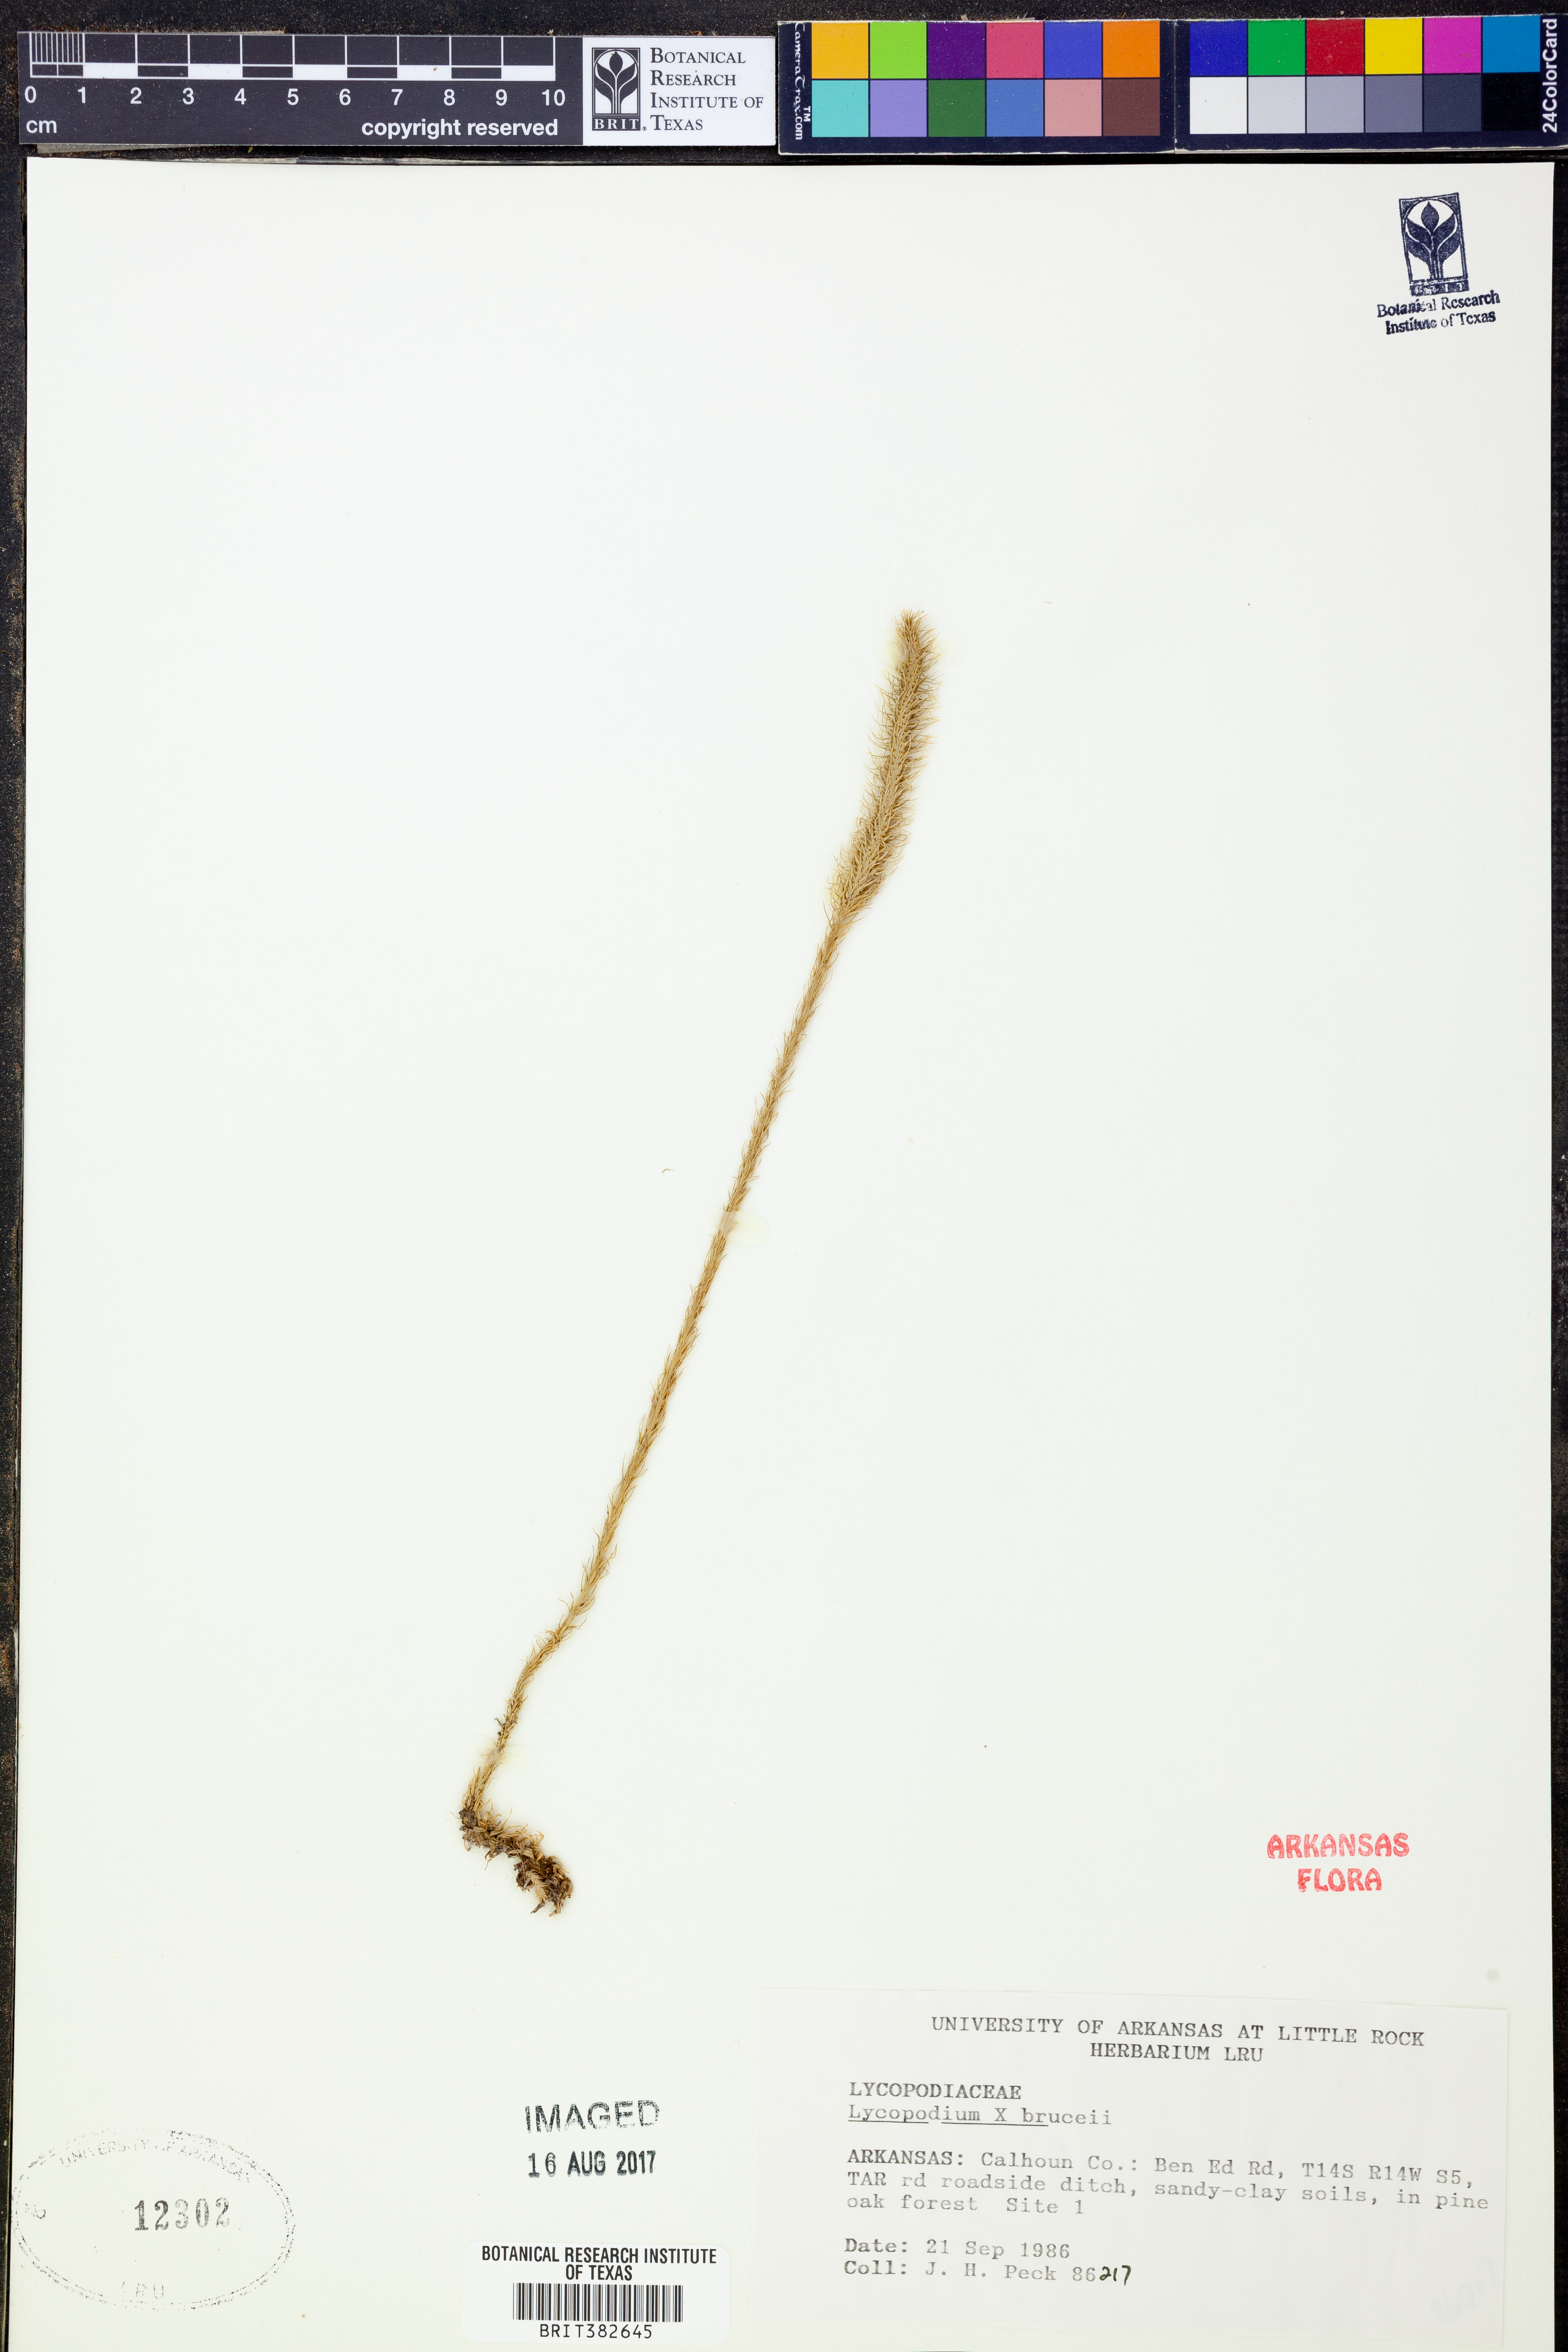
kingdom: Plantae
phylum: Tracheophyta
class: Lycopodiopsida
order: Lycopodiales
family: Lycopodiaceae
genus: Lycopodiella
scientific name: Lycopodiella brucei
